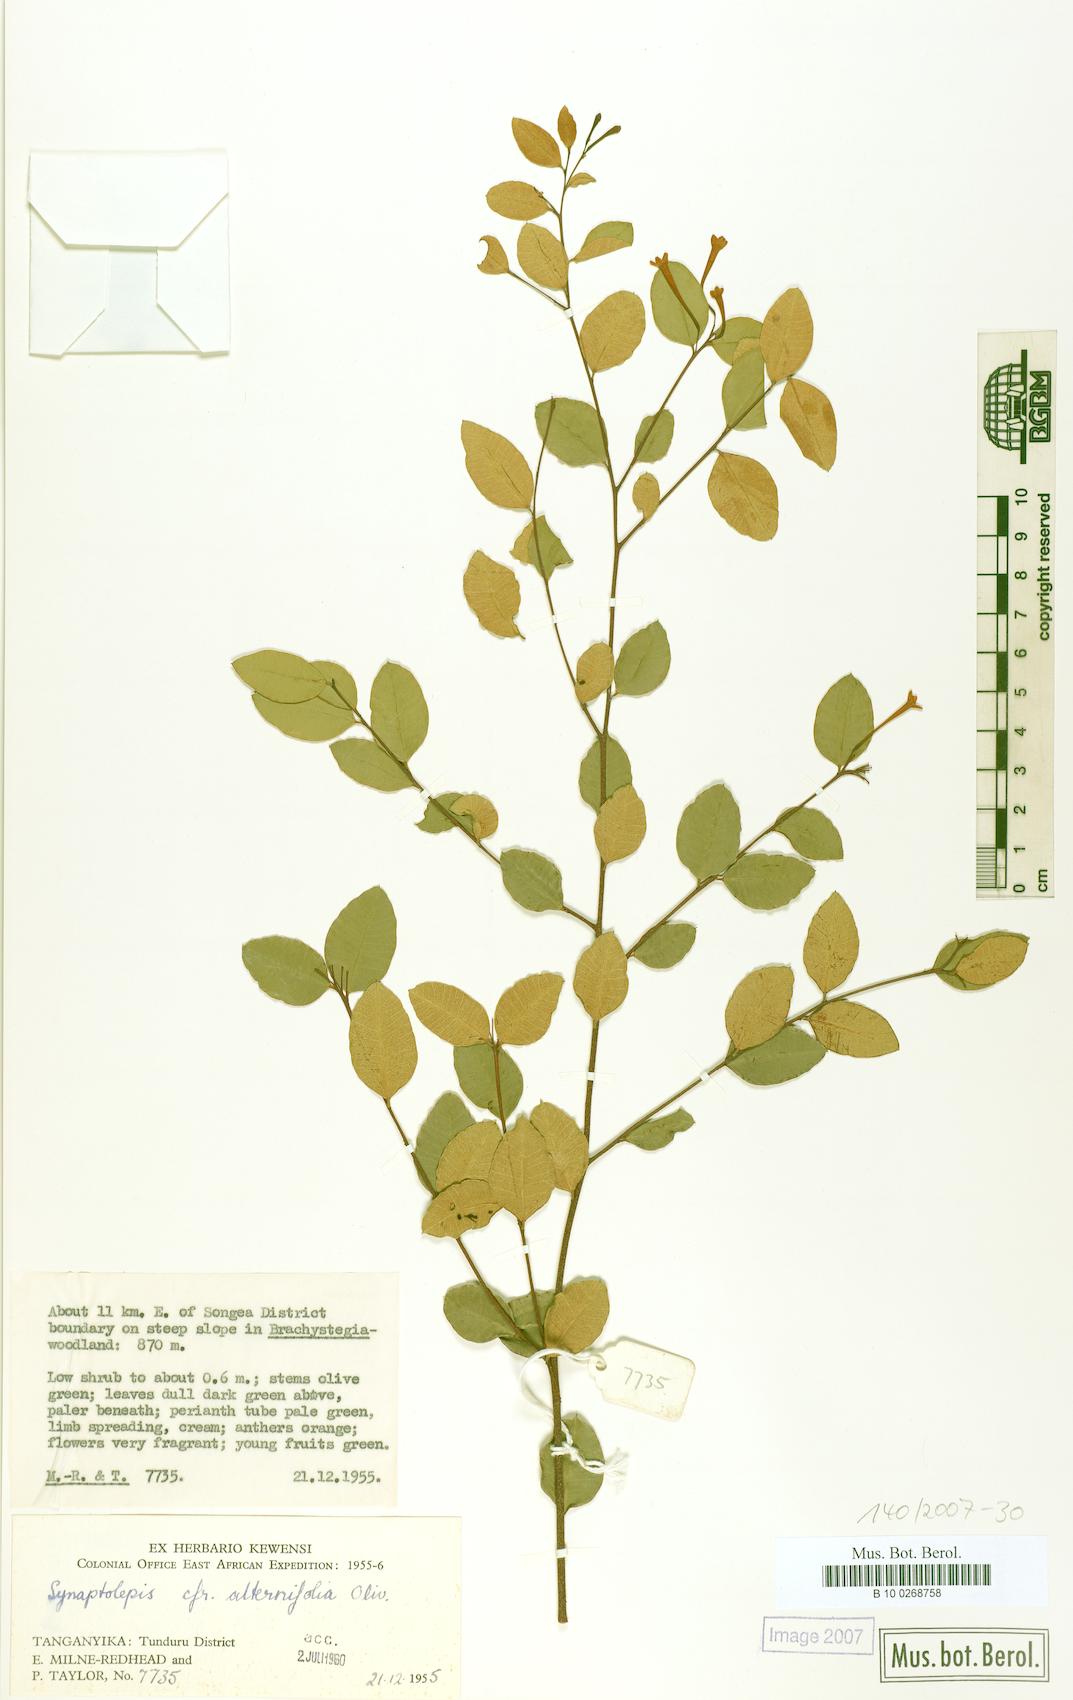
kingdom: Plantae
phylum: Tracheophyta
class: Magnoliopsida
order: Malvales
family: Thymelaeaceae
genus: Synaptolepis
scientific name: Synaptolepis alternifolia
